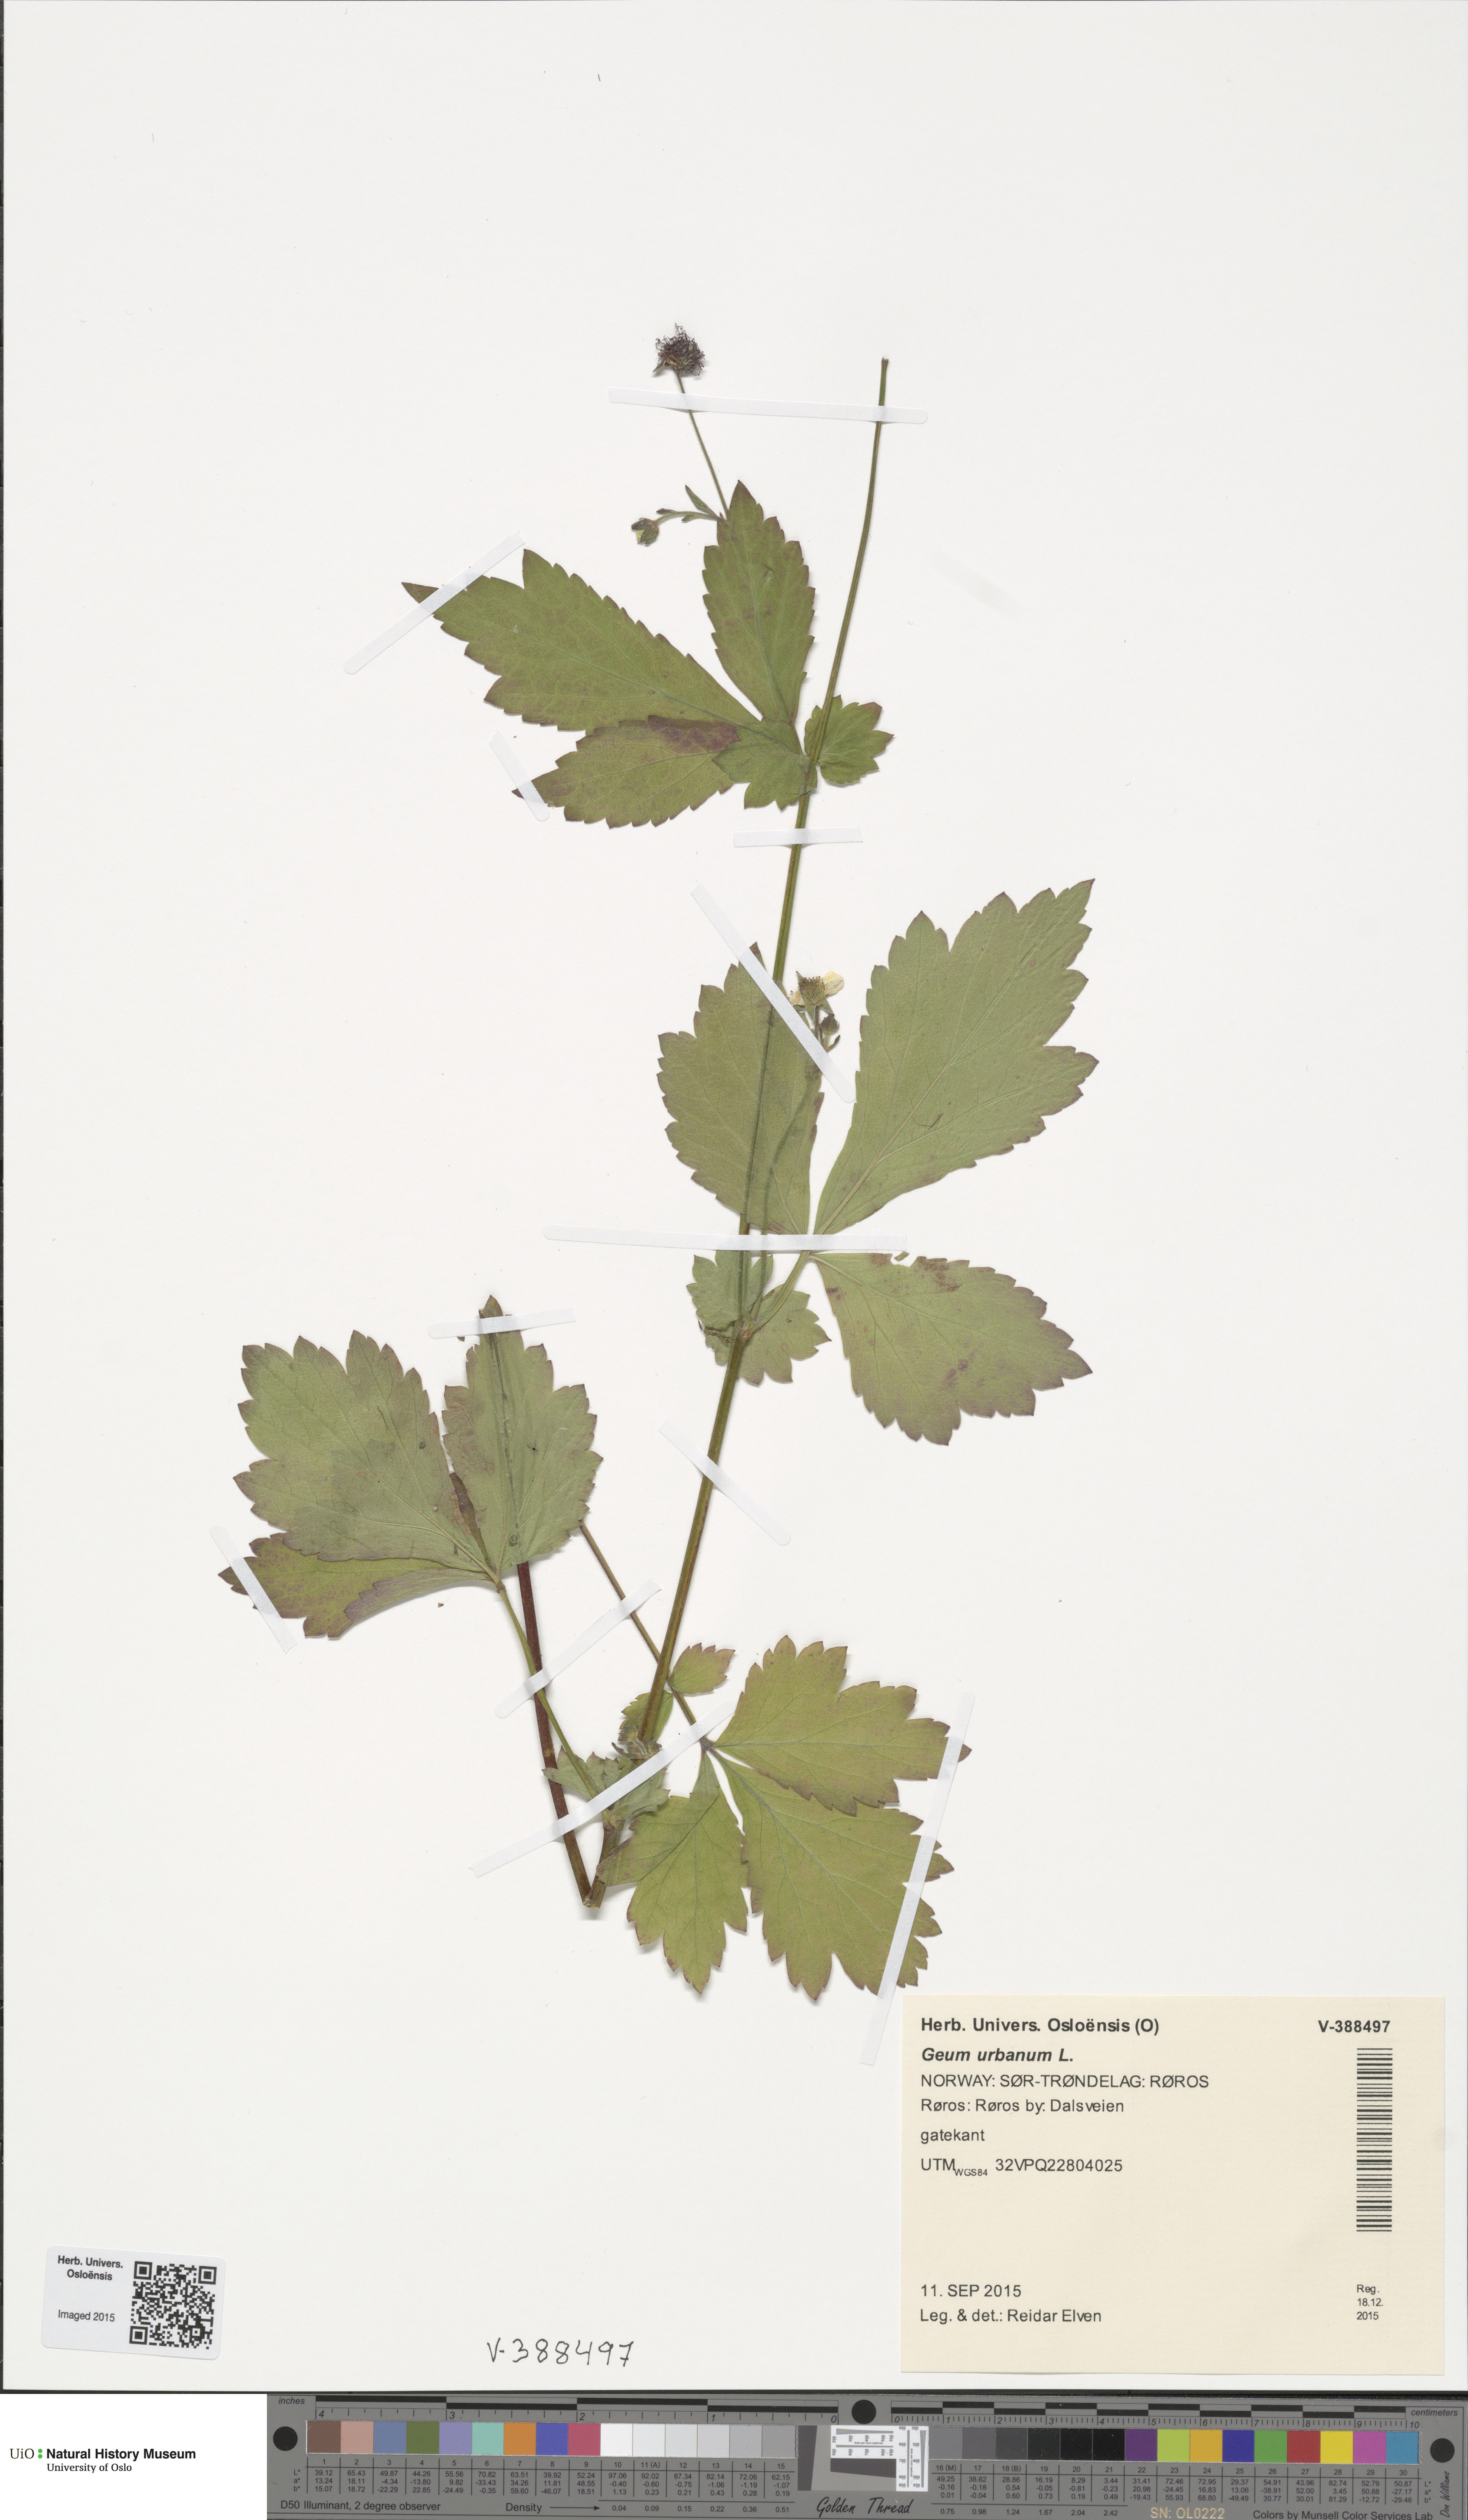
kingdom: Plantae
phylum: Tracheophyta
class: Magnoliopsida
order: Rosales
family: Rosaceae
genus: Geum
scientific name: Geum urbanum
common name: Wood avens
